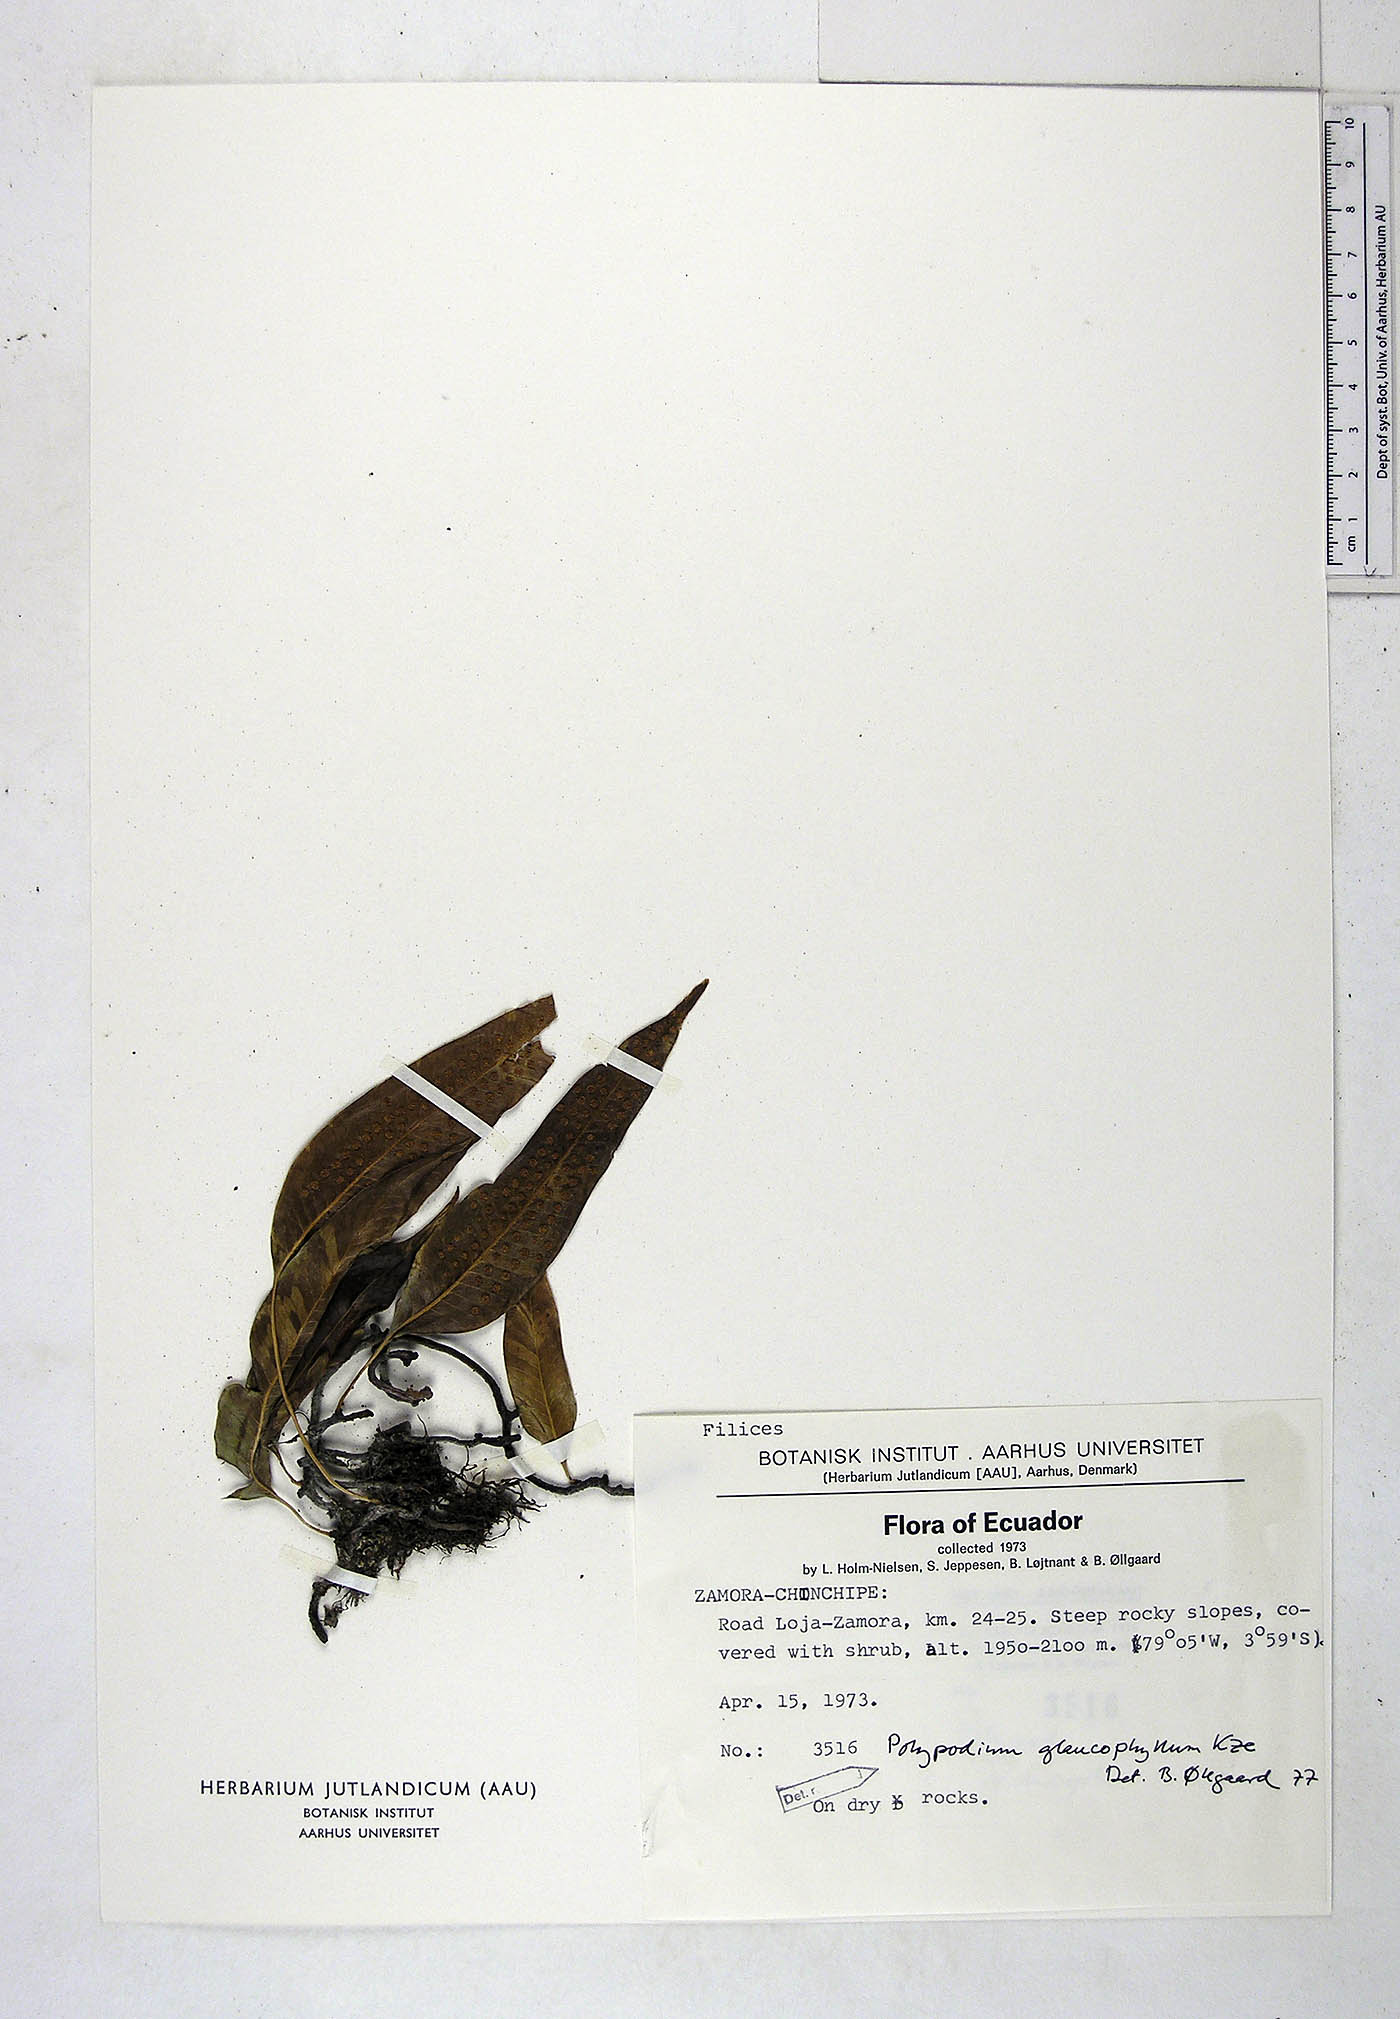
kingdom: Plantae
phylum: Tracheophyta
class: Polypodiopsida
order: Polypodiales
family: Polypodiaceae
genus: Serpocaulon
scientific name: Serpocaulon laevigatum
